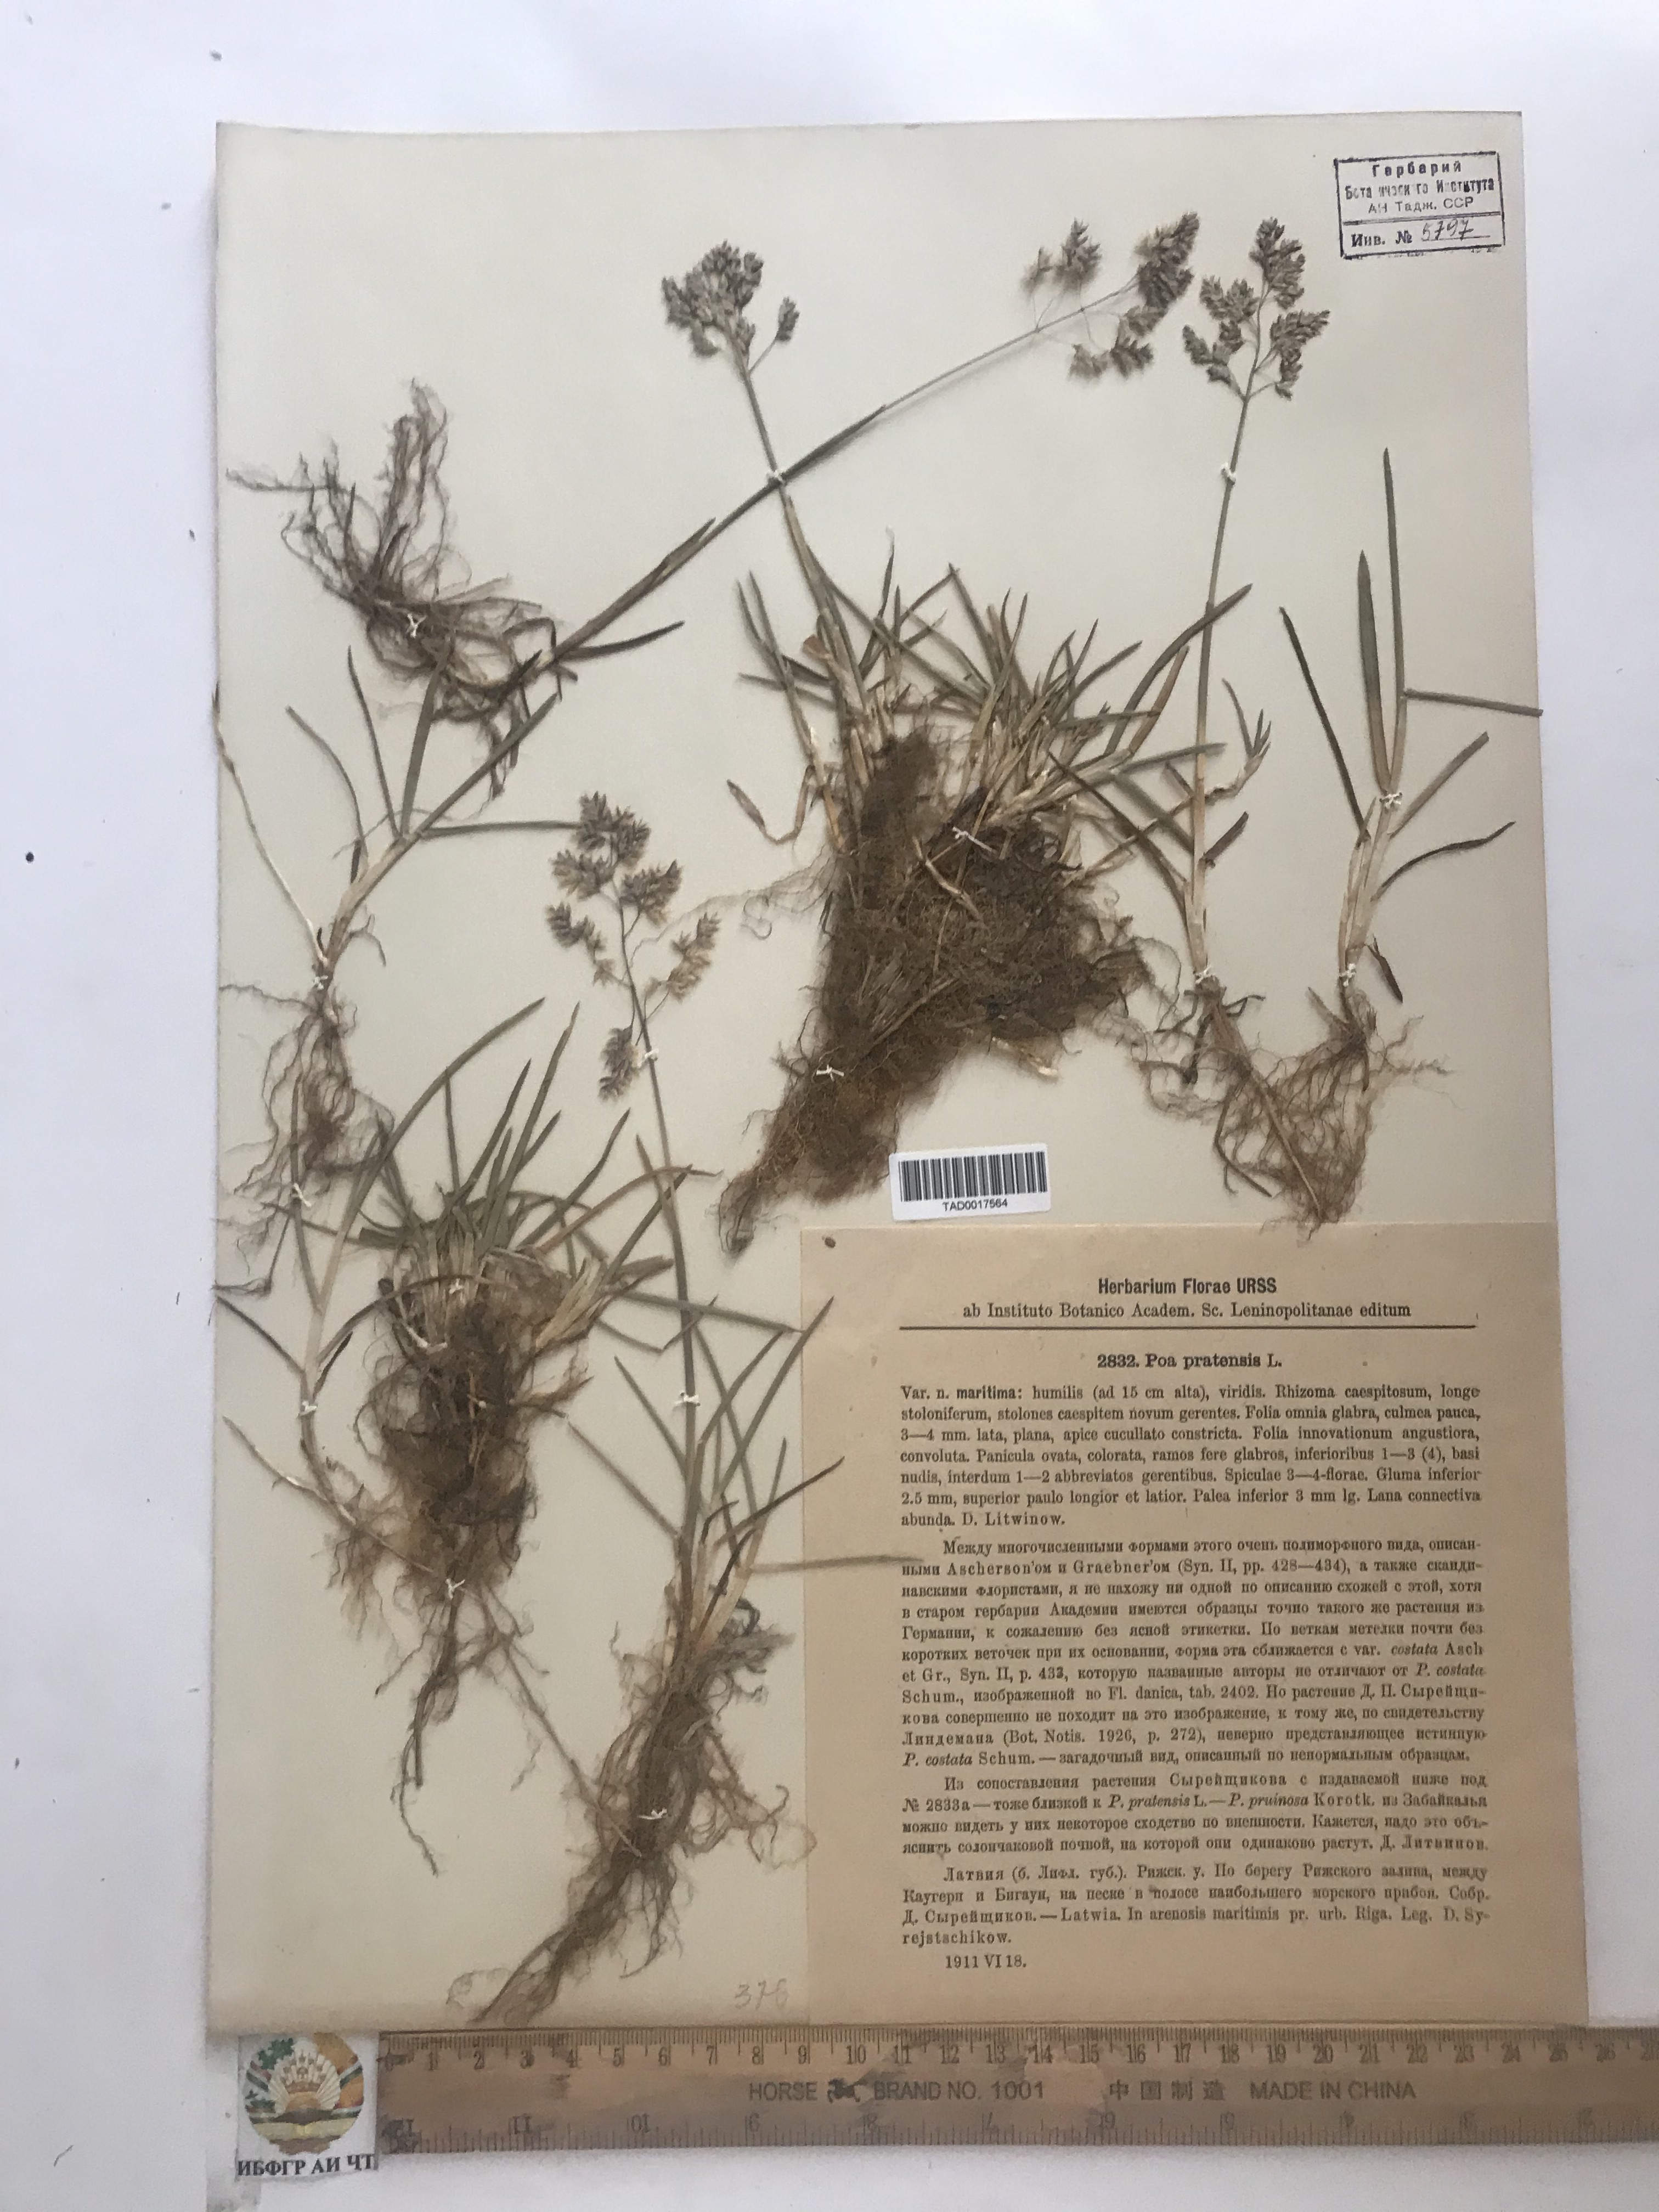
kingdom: Plantae
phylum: Tracheophyta
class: Liliopsida
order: Poales
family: Poaceae
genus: Poa
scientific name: Poa pratensis
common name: Kentucky bluegrass
